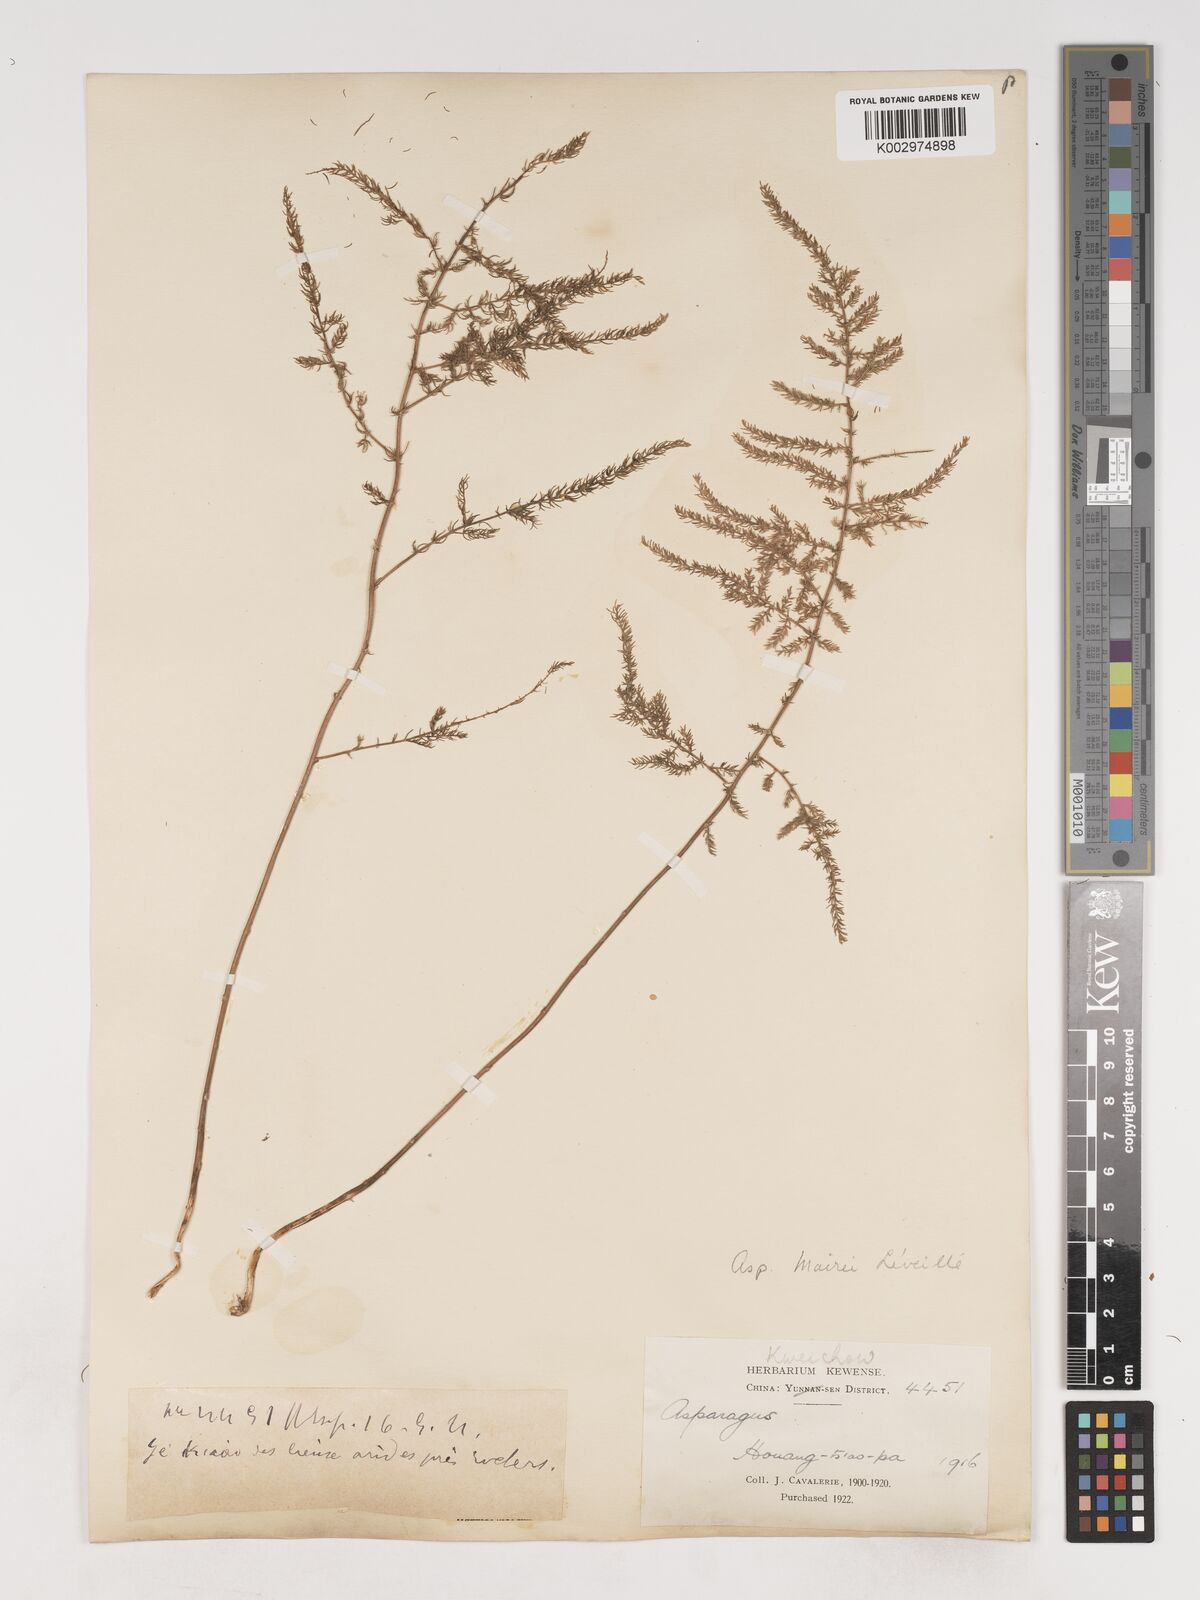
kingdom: Plantae
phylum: Tracheophyta
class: Liliopsida
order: Asparagales
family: Asparagaceae
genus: Asparagus
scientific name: Asparagus meioclados
